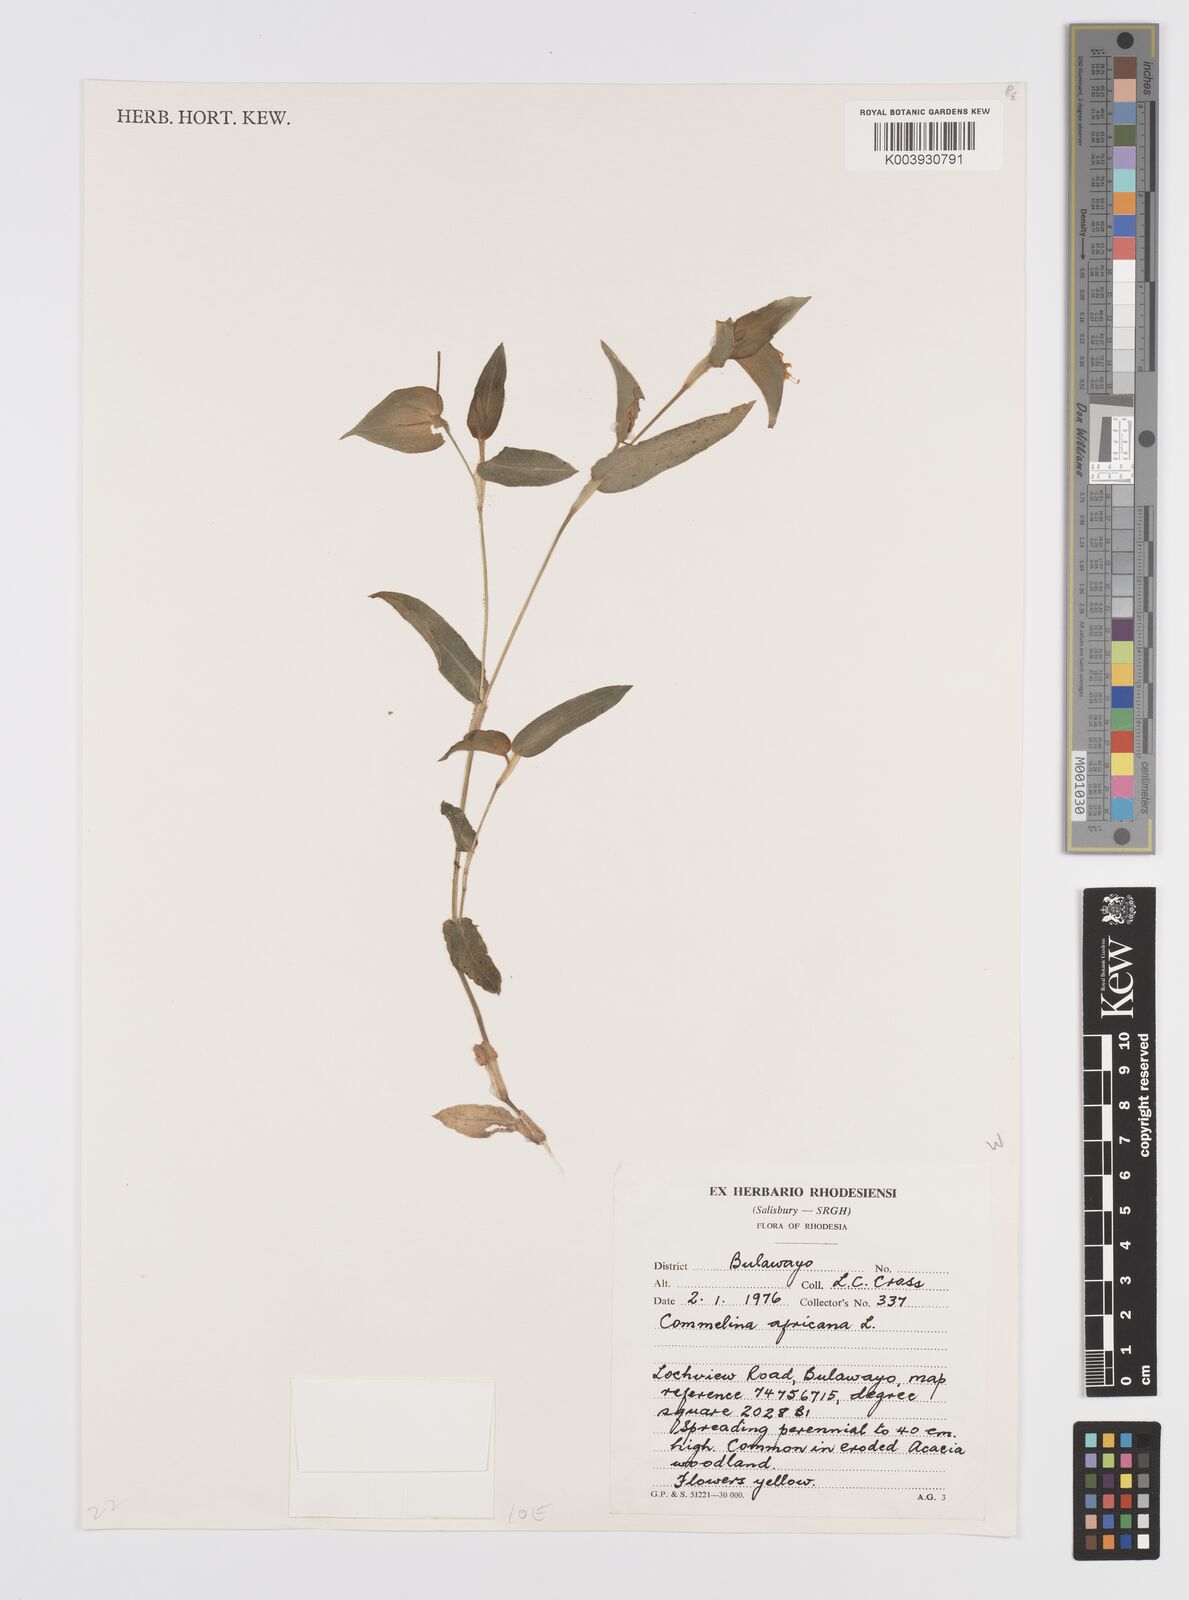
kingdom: Plantae
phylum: Tracheophyta
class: Liliopsida
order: Commelinales
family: Commelinaceae
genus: Commelina
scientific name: Commelina africana
